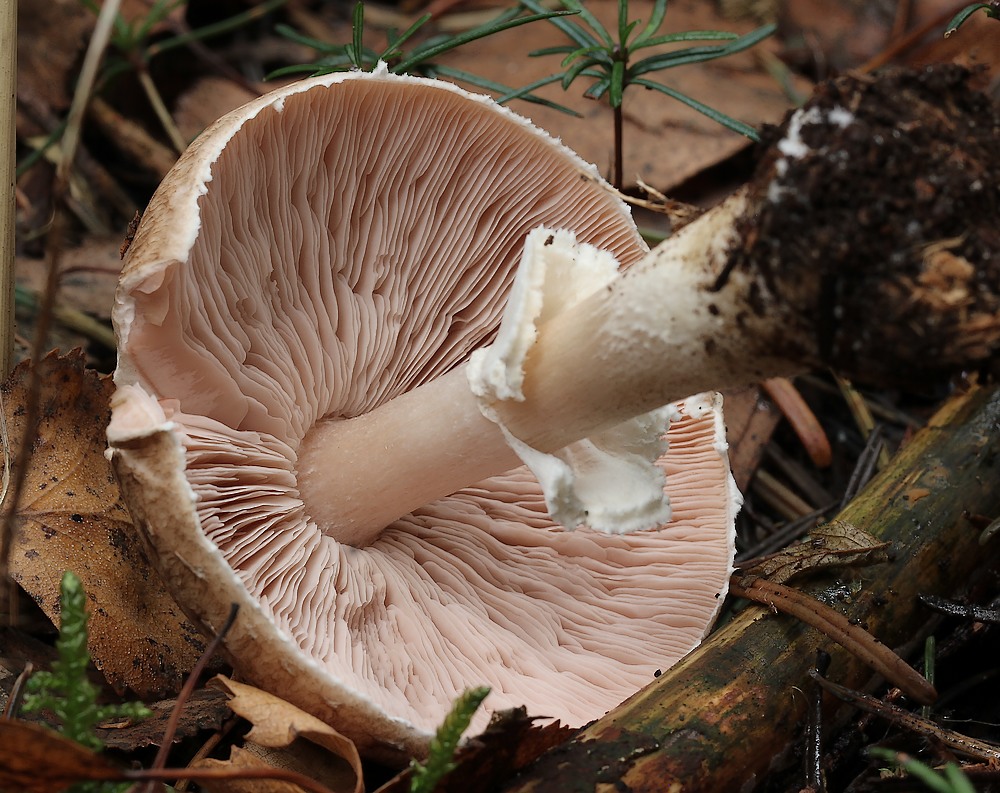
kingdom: Fungi
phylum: Basidiomycota
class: Agaricomycetes
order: Agaricales
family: Agaricaceae
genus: Agaricus
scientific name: Agaricus impudicus
